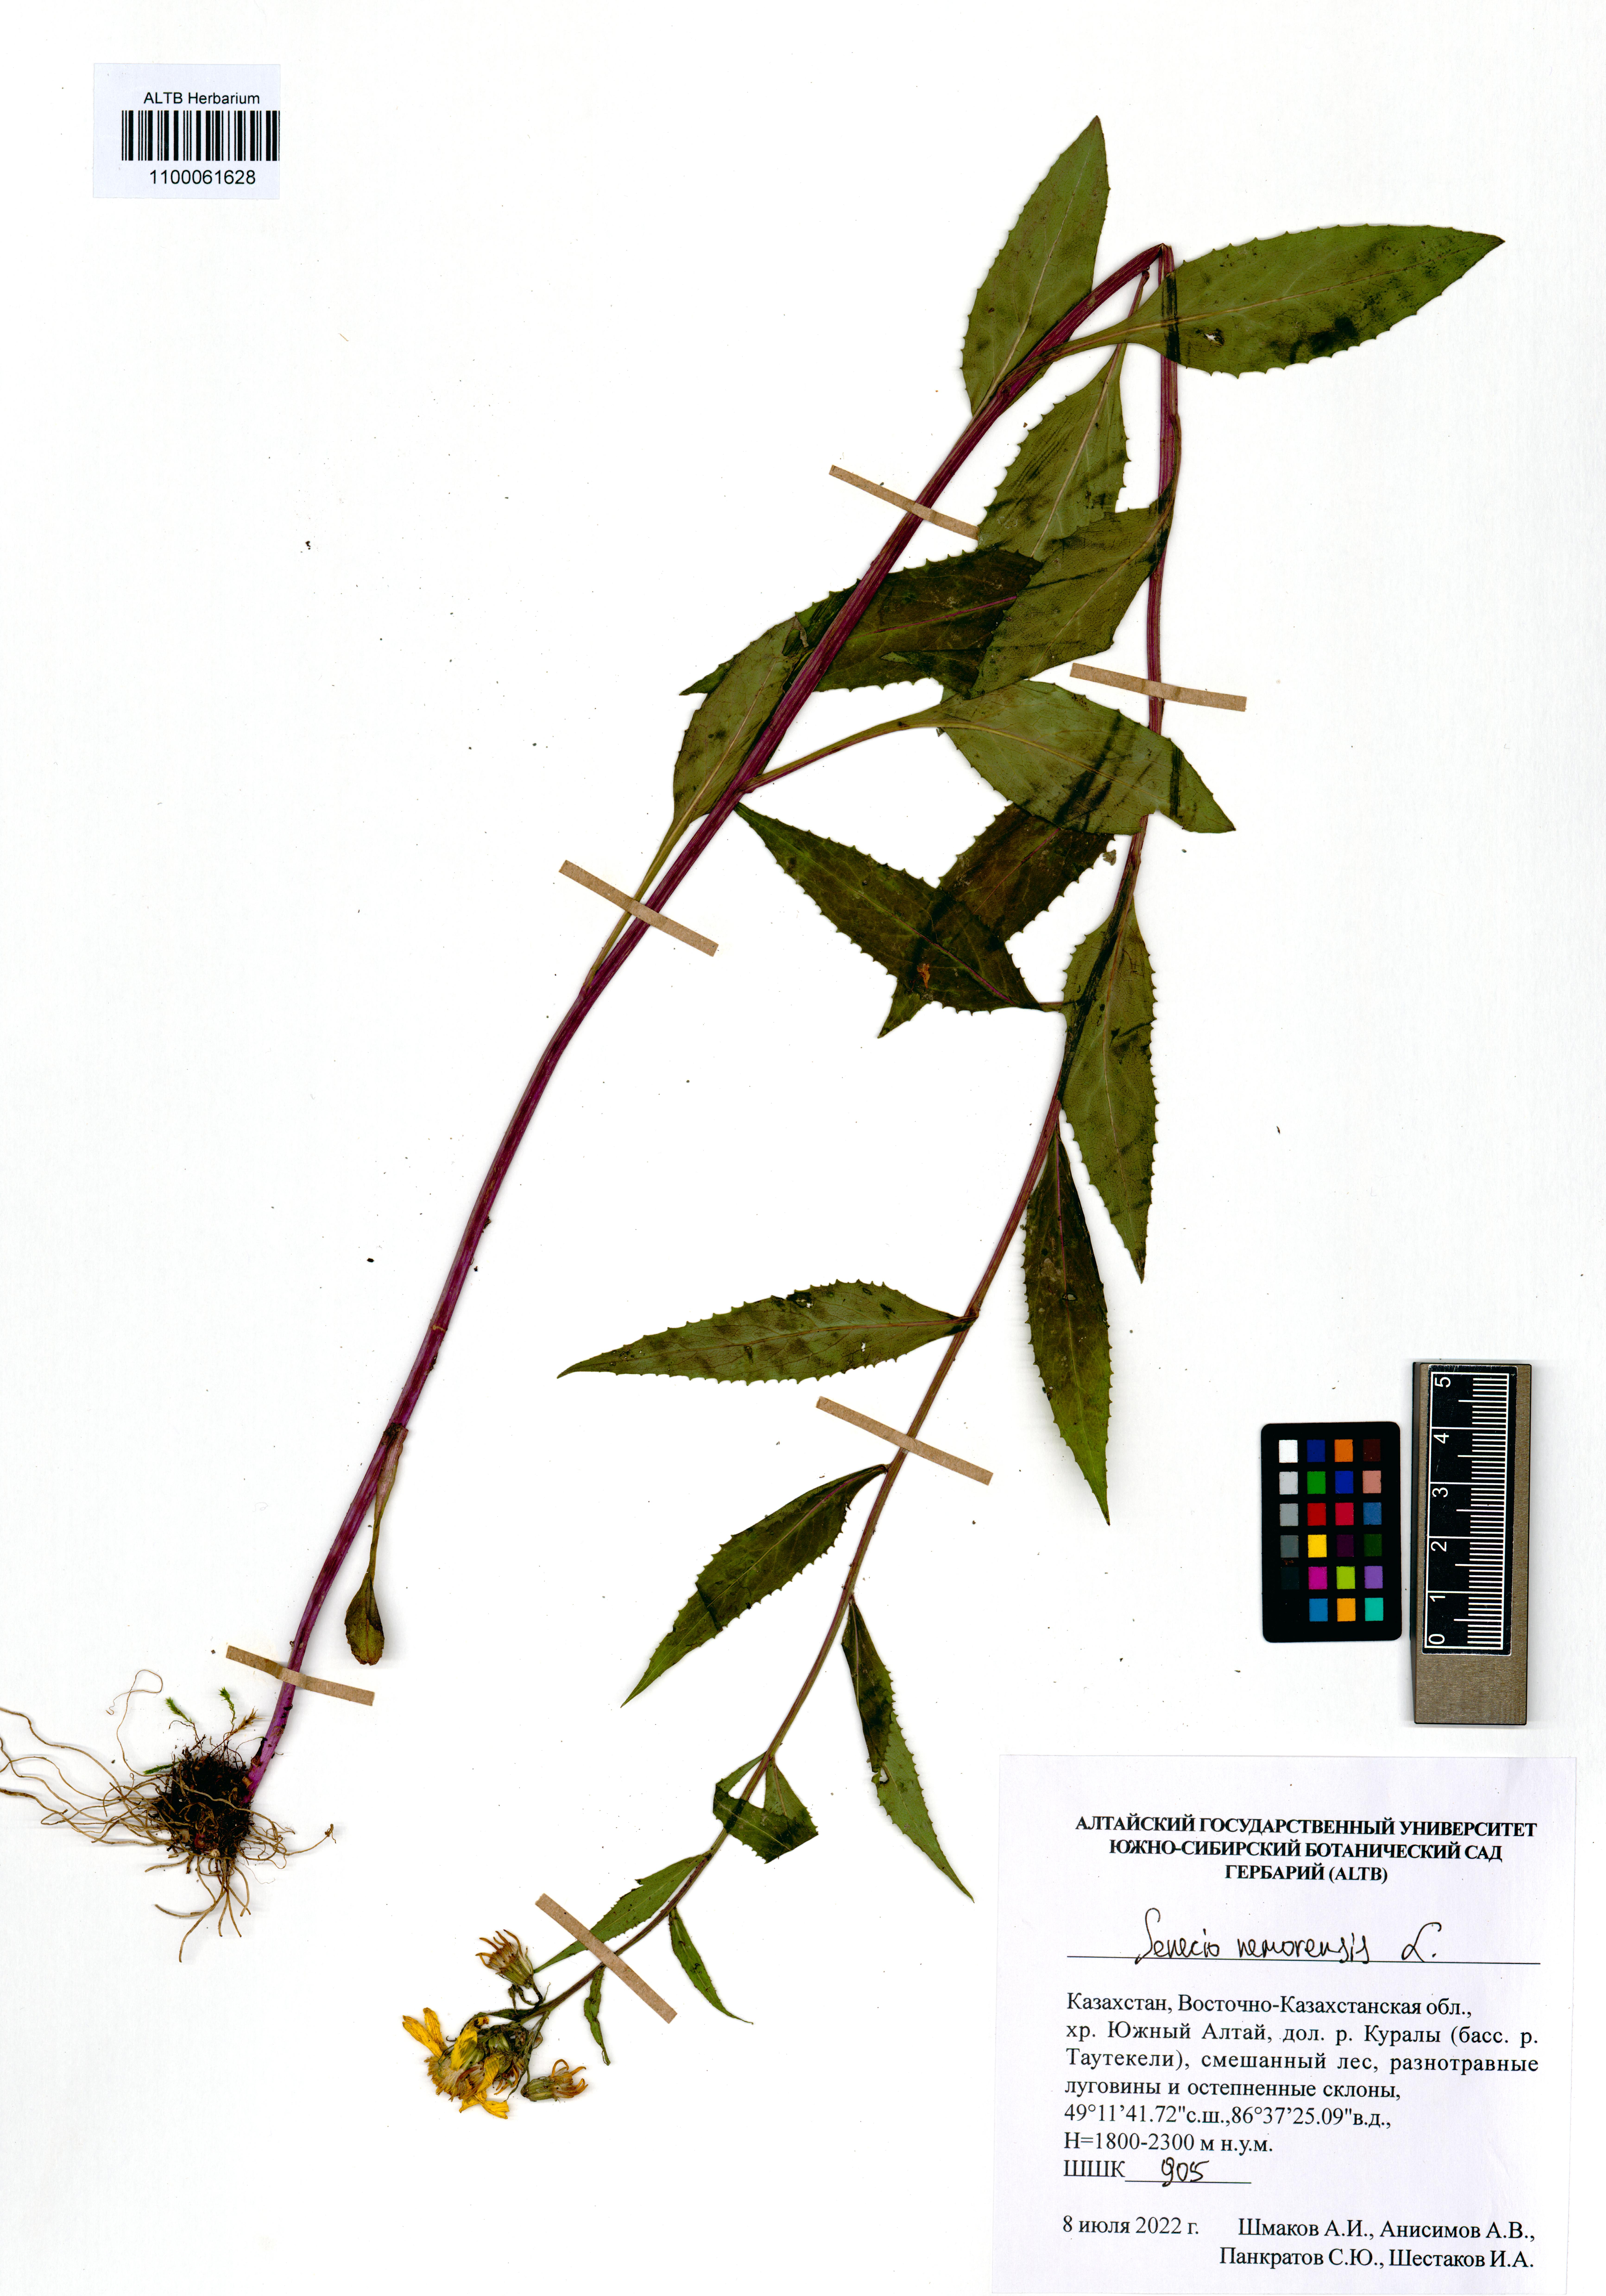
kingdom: Plantae
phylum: Tracheophyta
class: Magnoliopsida
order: Asterales
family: Asteraceae
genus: Senecio
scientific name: Senecio nemorensis
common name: Alpine ragwort
